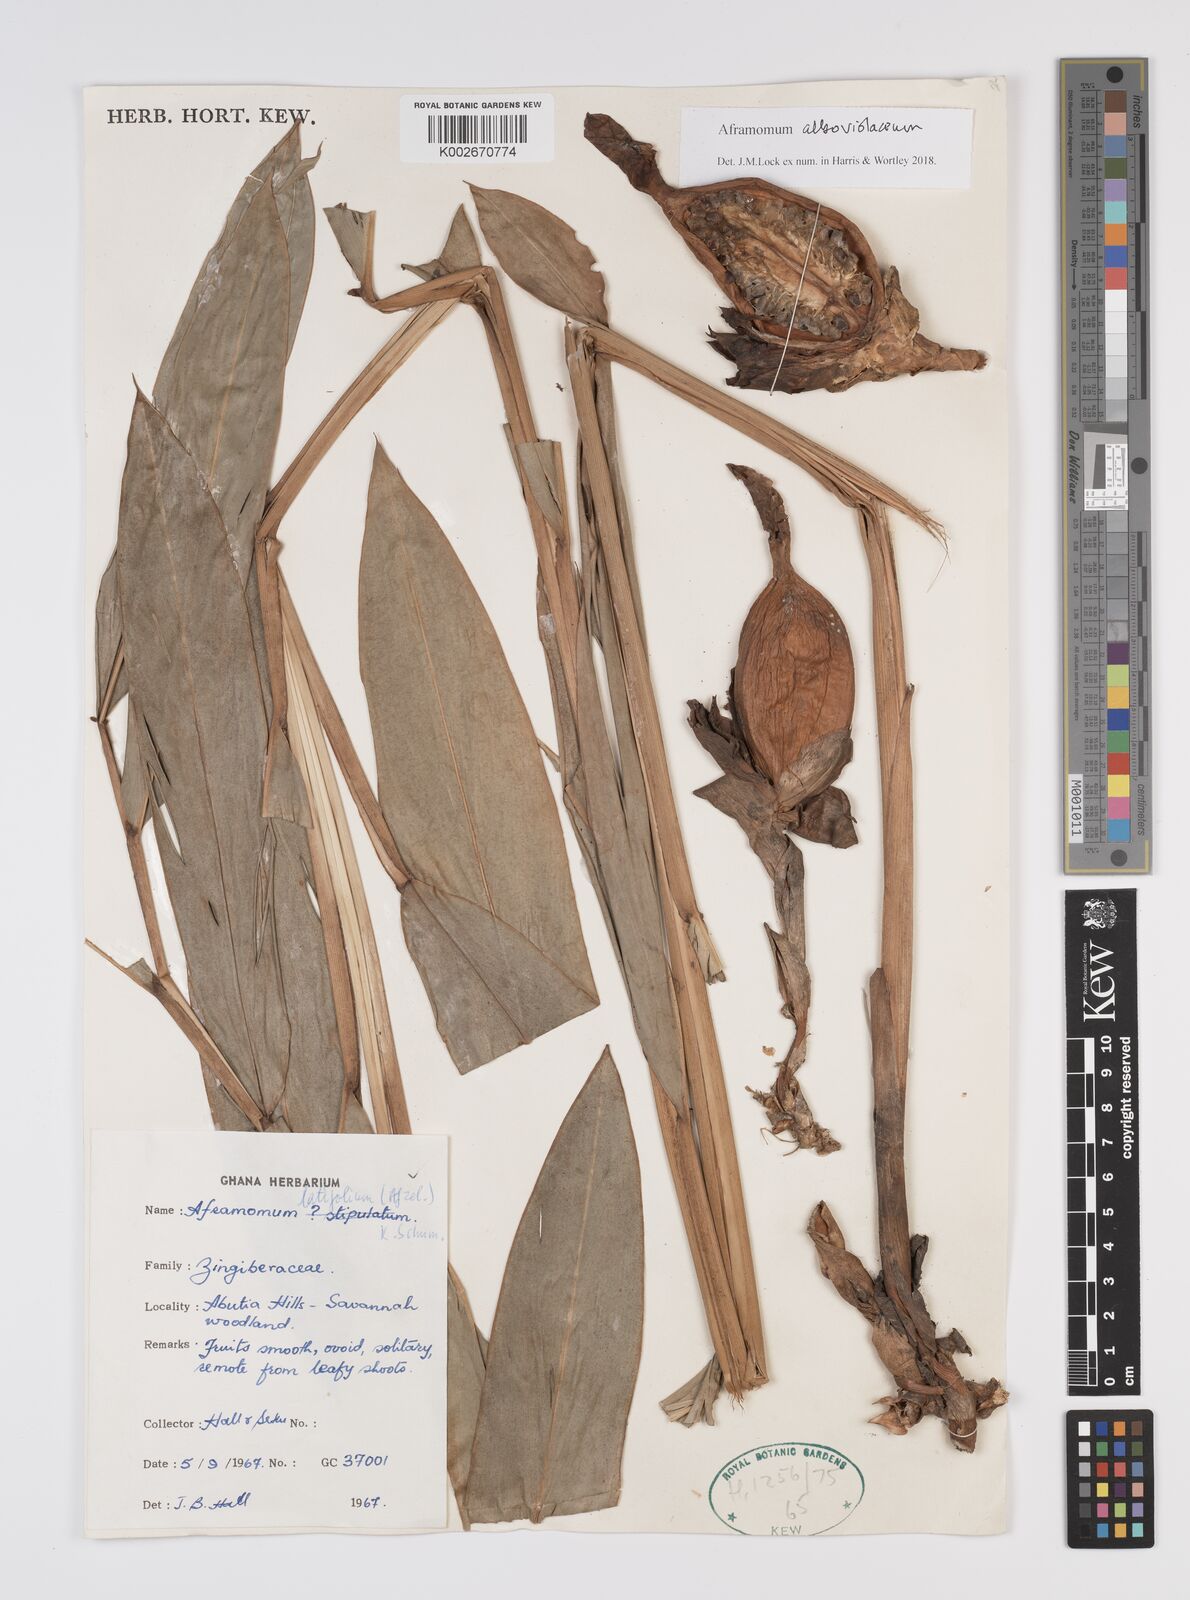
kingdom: Plantae
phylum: Tracheophyta
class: Liliopsida
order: Zingiberales
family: Zingiberaceae
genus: Aframomum
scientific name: Aframomum alboviolaceum
